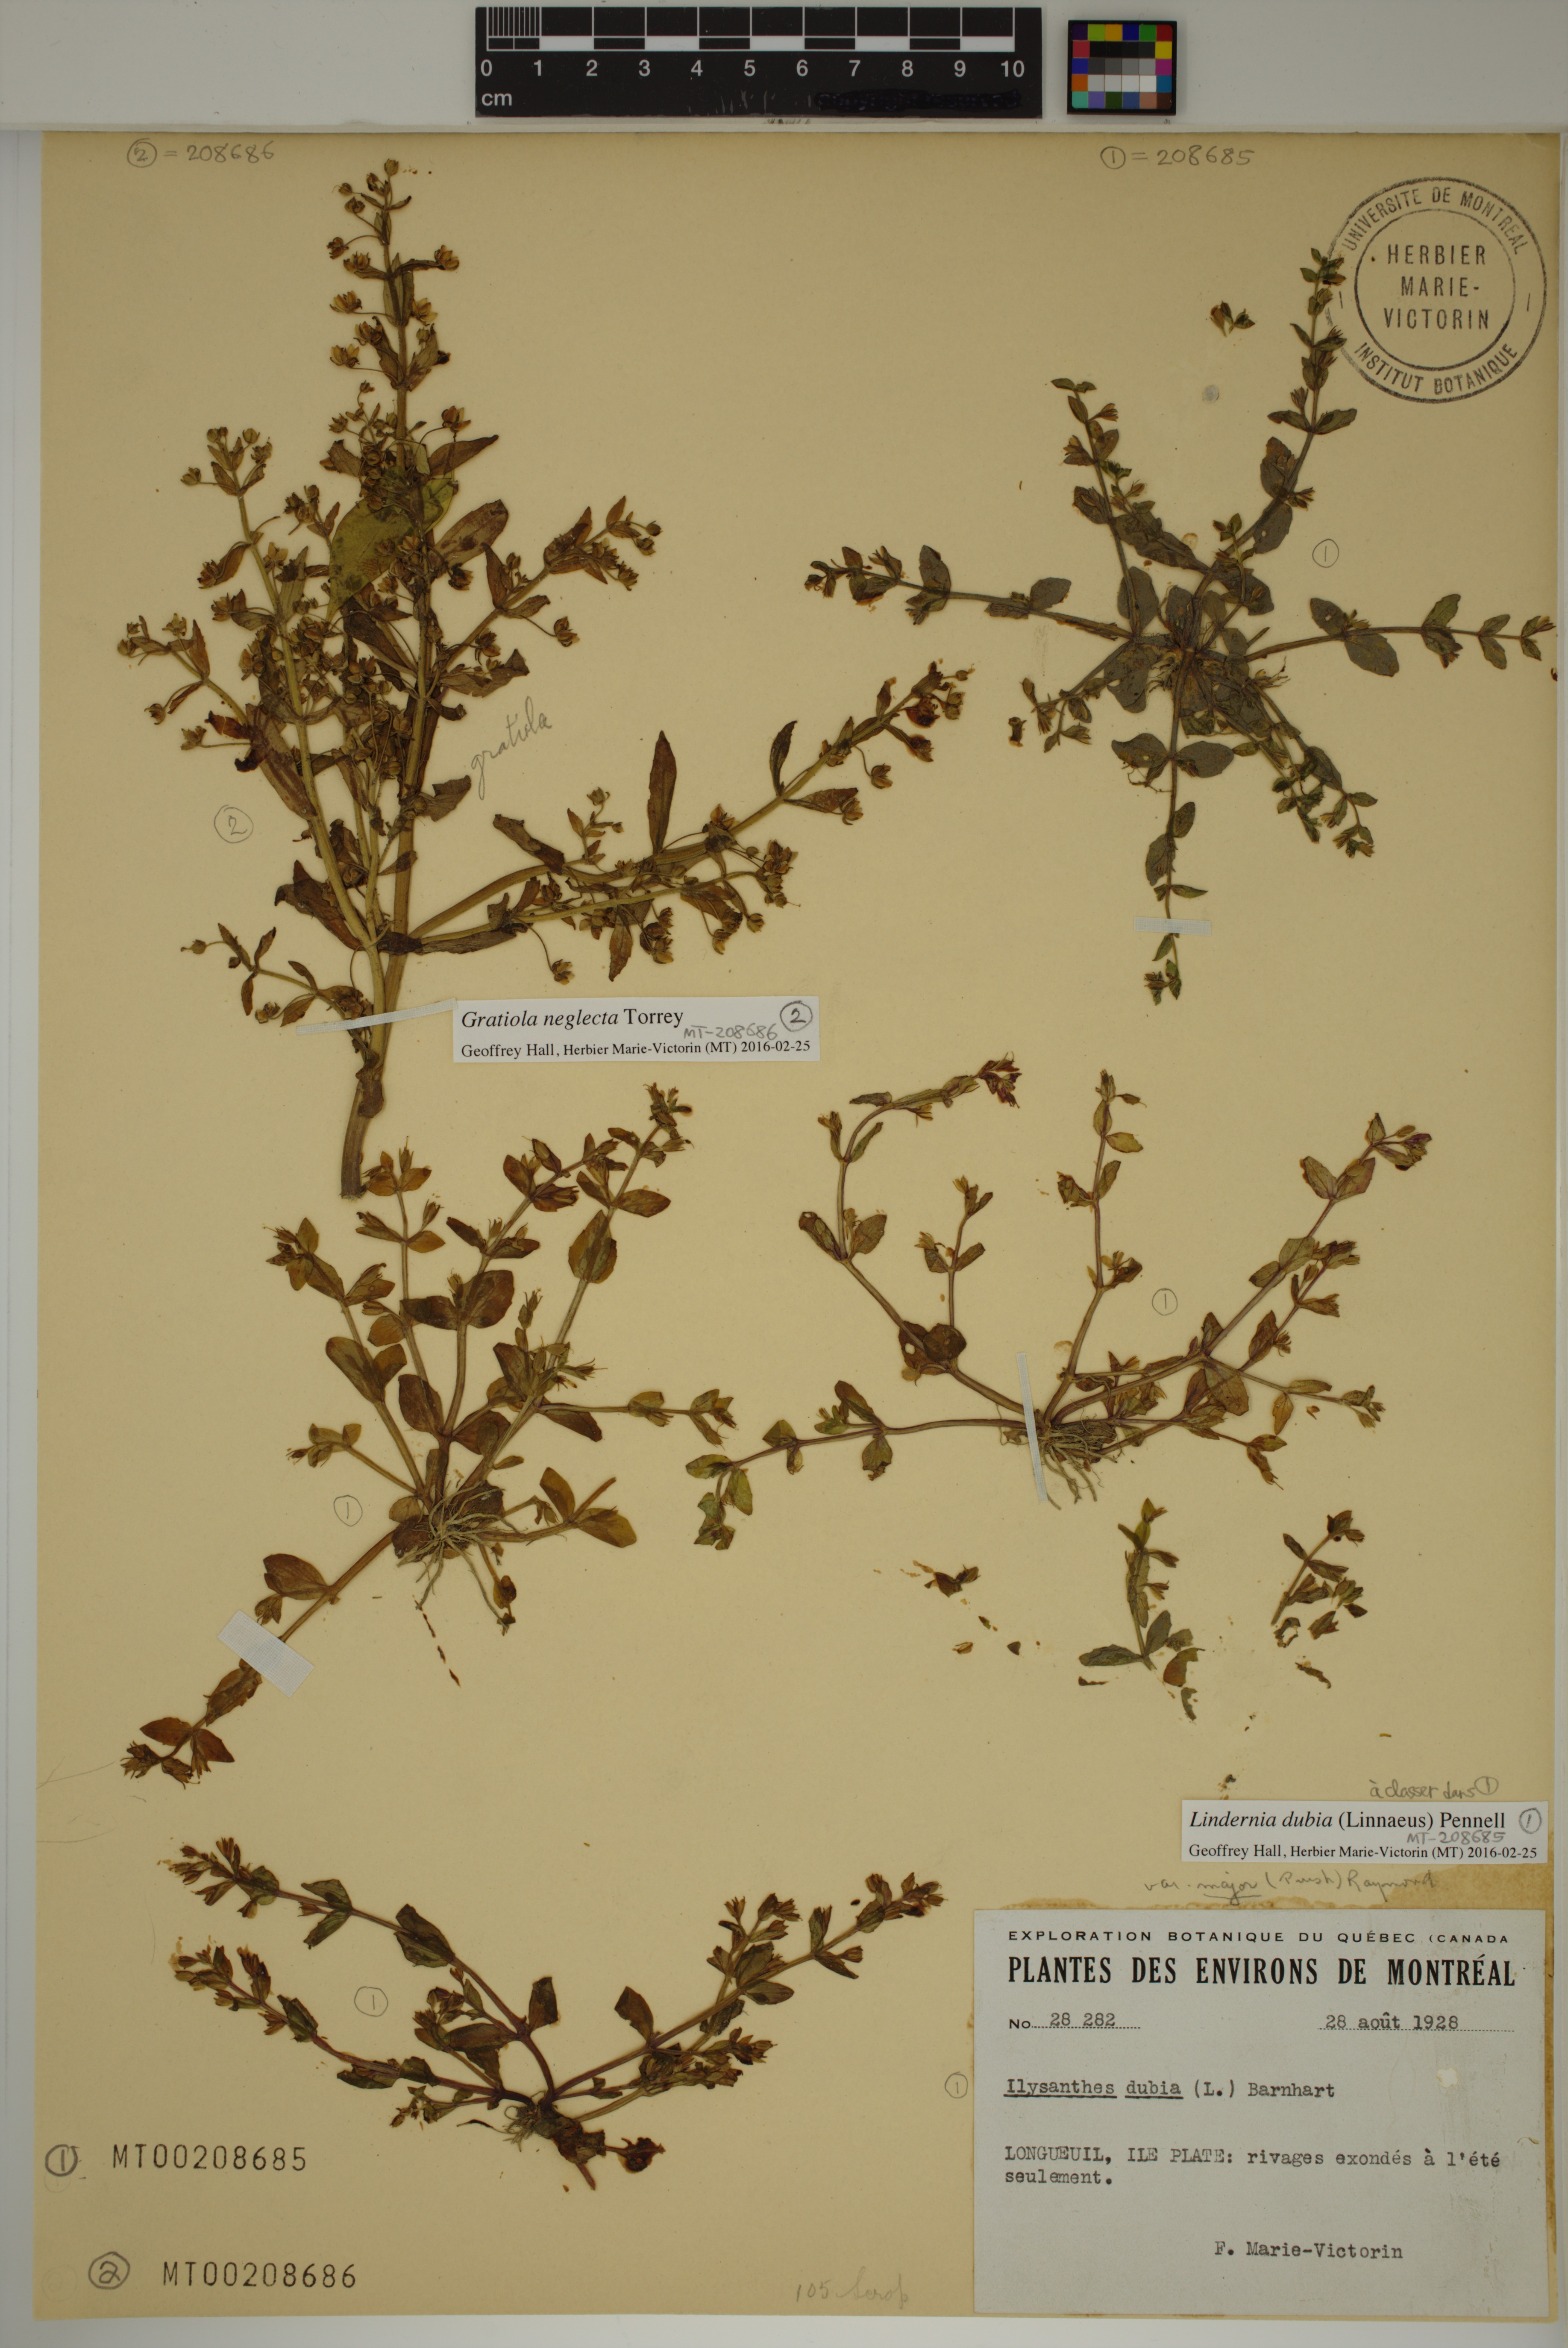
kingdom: Plantae
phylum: Tracheophyta
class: Magnoliopsida
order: Lamiales
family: Linderniaceae
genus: Lindernia
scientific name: Lindernia dubia
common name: Annual false pimpernel
